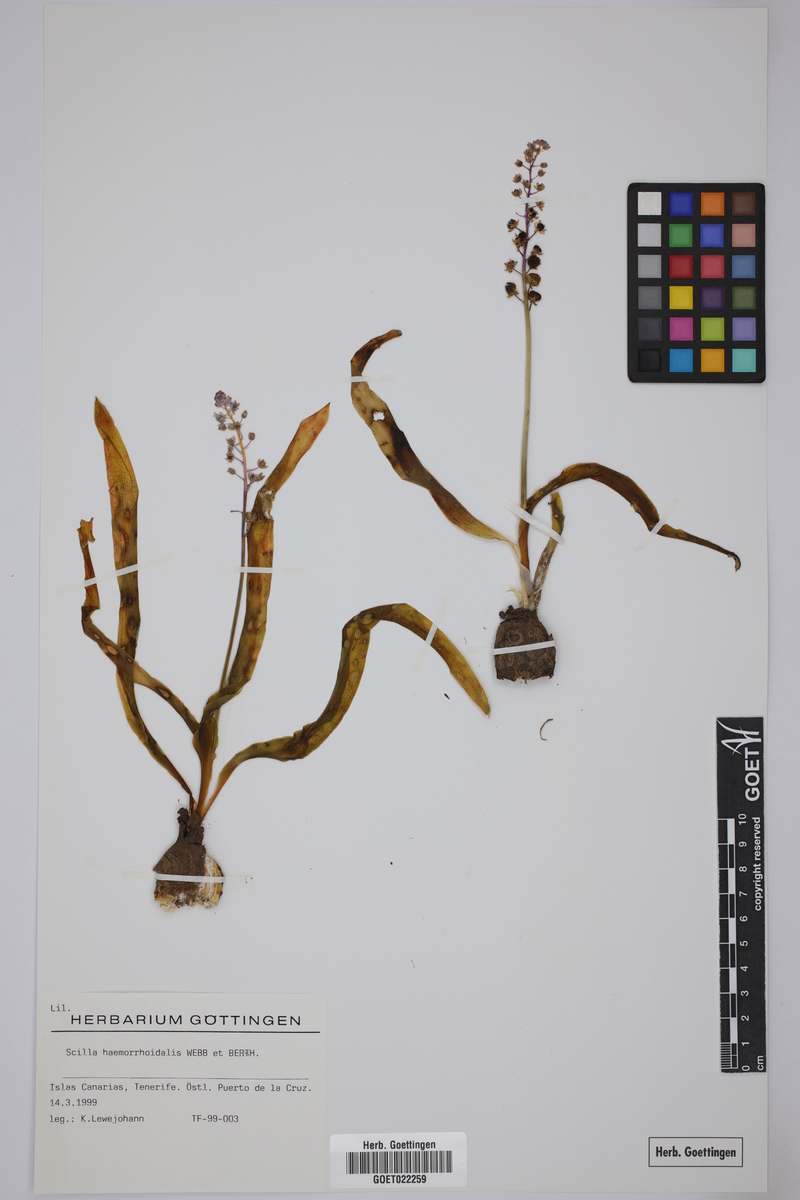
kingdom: Plantae
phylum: Tracheophyta
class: Liliopsida
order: Asparagales
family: Asparagaceae
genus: Scilla
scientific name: Scilla haemorrhoidalis
